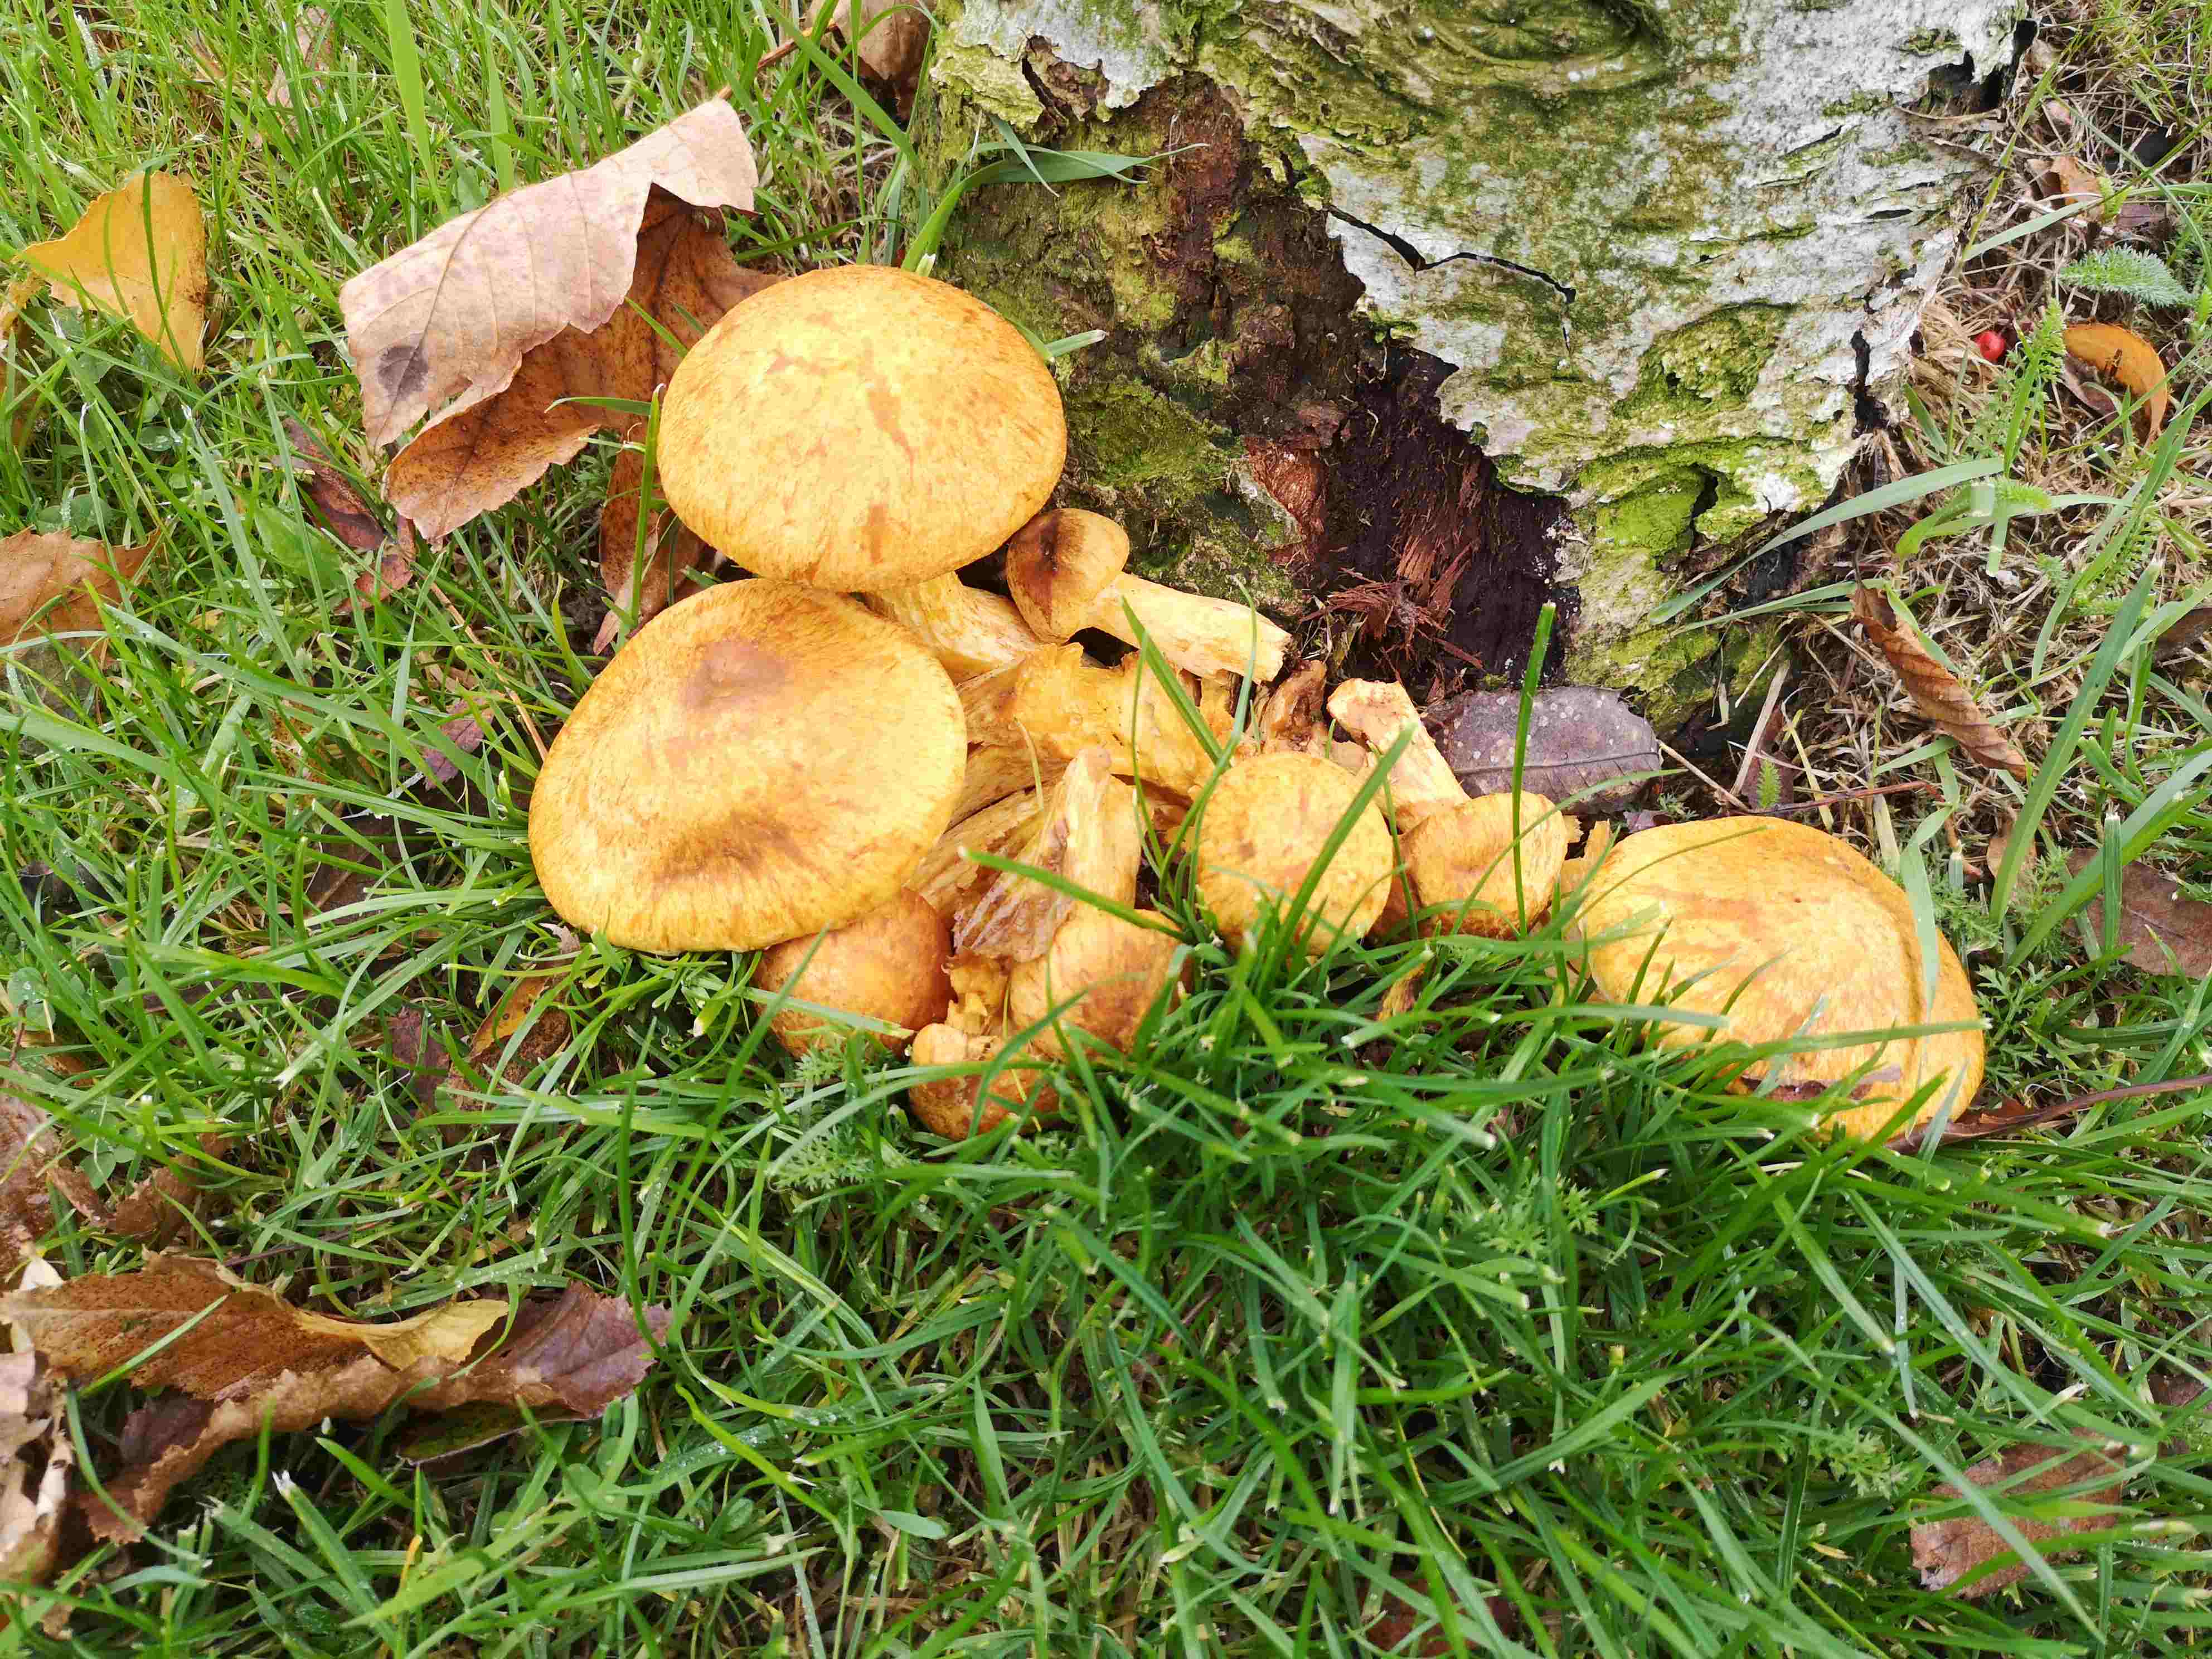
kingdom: Fungi
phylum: Basidiomycota
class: Agaricomycetes
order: Agaricales
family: Hymenogastraceae
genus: Gymnopilus
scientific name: Gymnopilus spectabilis
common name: fibret flammehat
